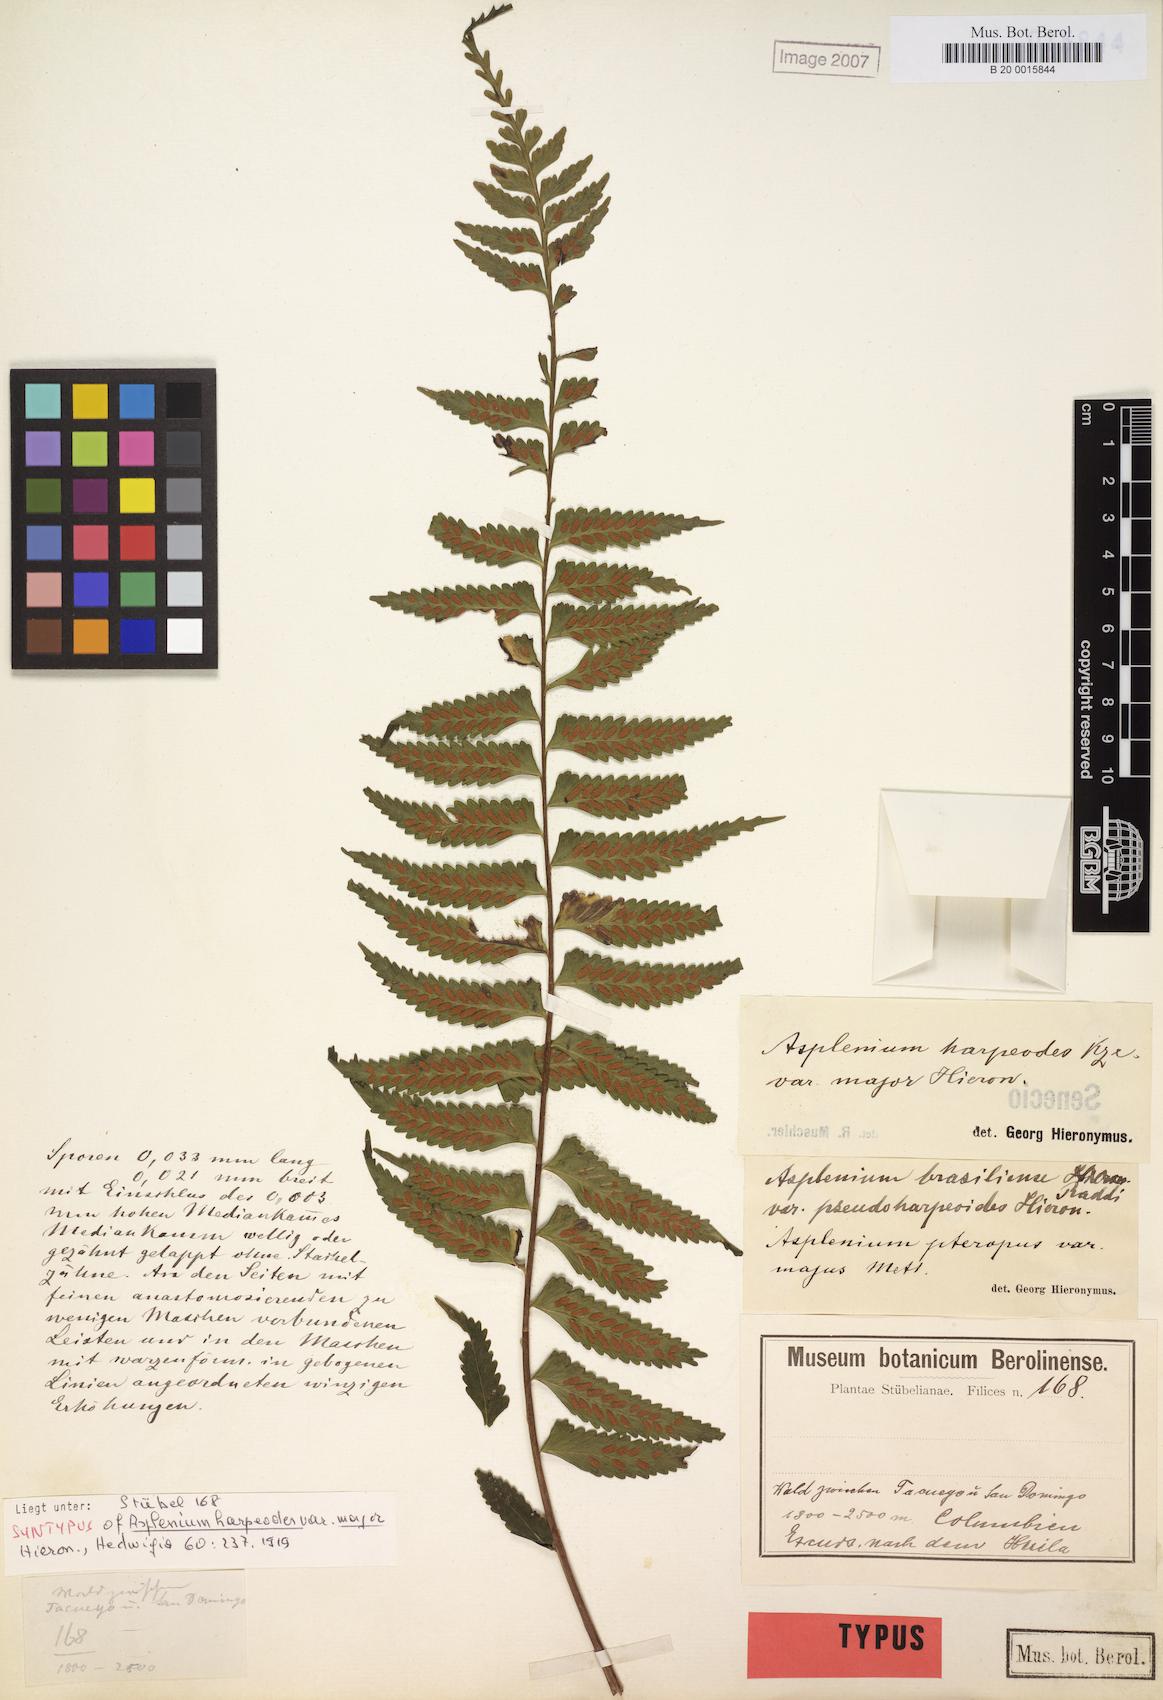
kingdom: Plantae
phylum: Tracheophyta
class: Polypodiopsida
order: Polypodiales
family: Aspleniaceae
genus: Asplenium
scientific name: Asplenium harpeodes
